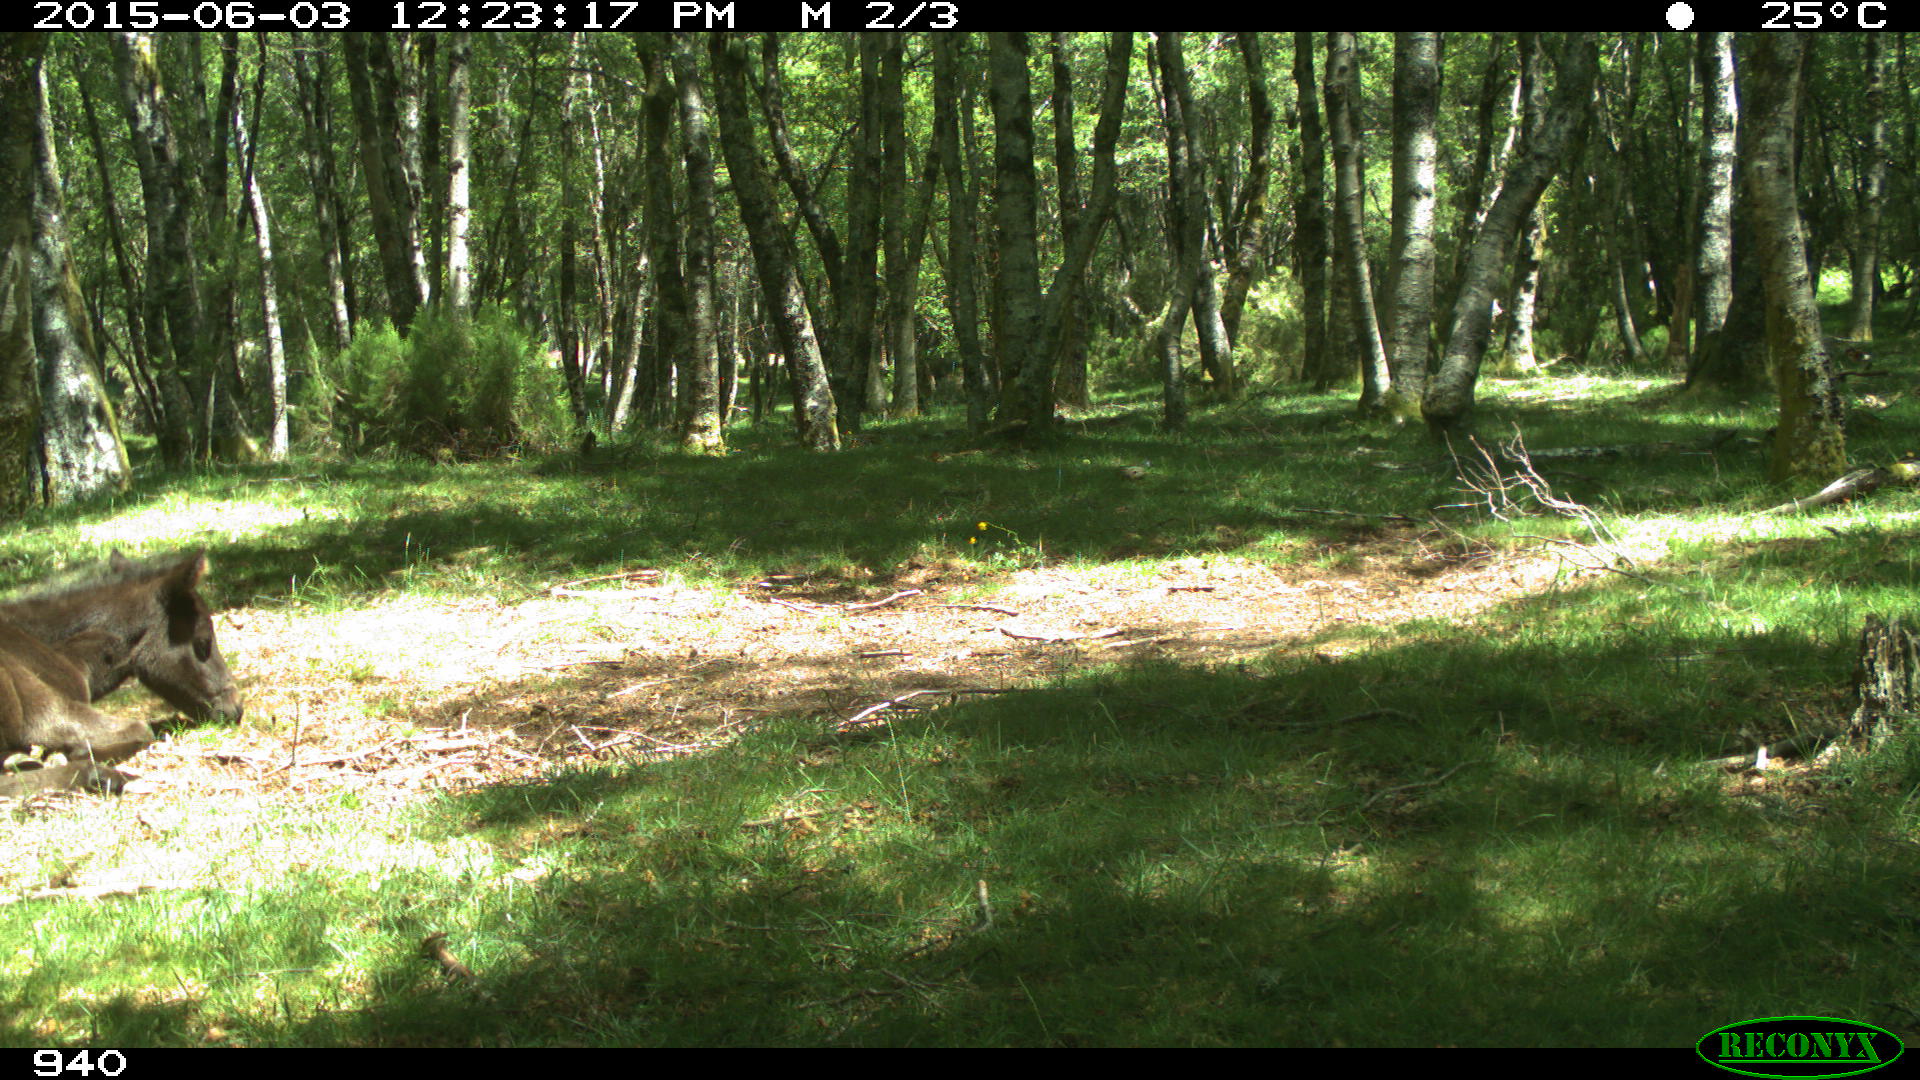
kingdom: Animalia
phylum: Chordata
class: Mammalia
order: Perissodactyla
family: Equidae
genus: Equus
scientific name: Equus caballus
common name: Horse
